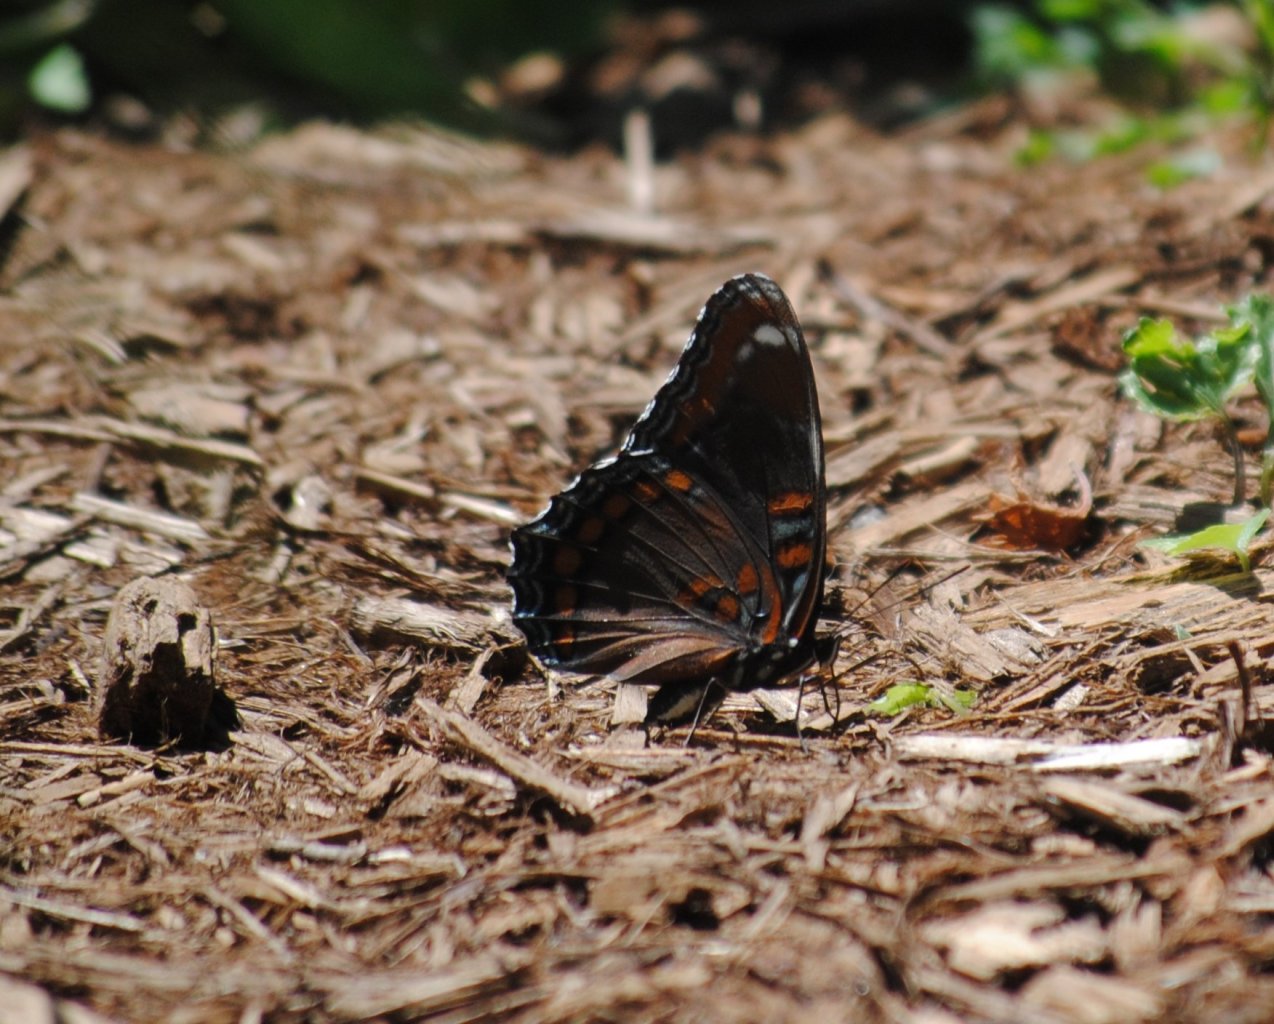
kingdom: Animalia
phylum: Arthropoda
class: Insecta
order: Lepidoptera
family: Nymphalidae
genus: Limenitis
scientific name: Limenitis astyanax
